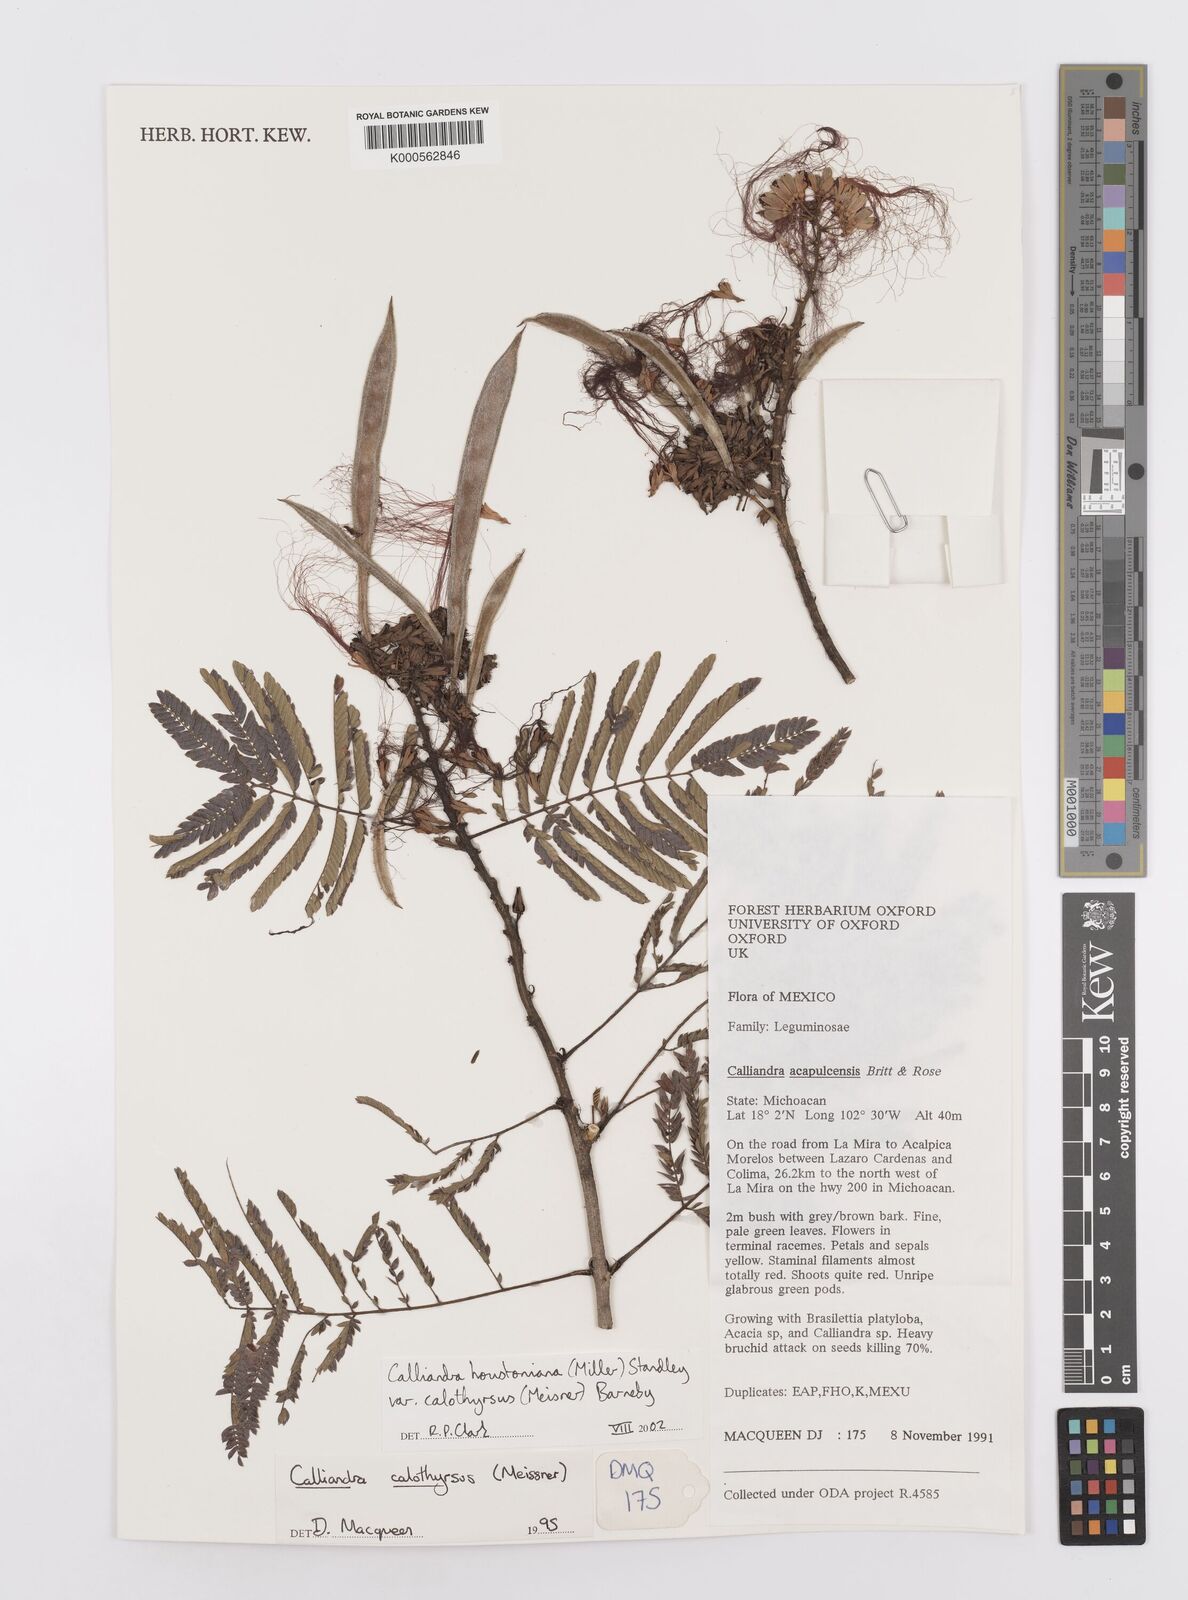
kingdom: Plantae
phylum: Tracheophyta
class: Magnoliopsida
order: Fabales
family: Fabaceae
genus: Calliandra
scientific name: Calliandra houstoniana
